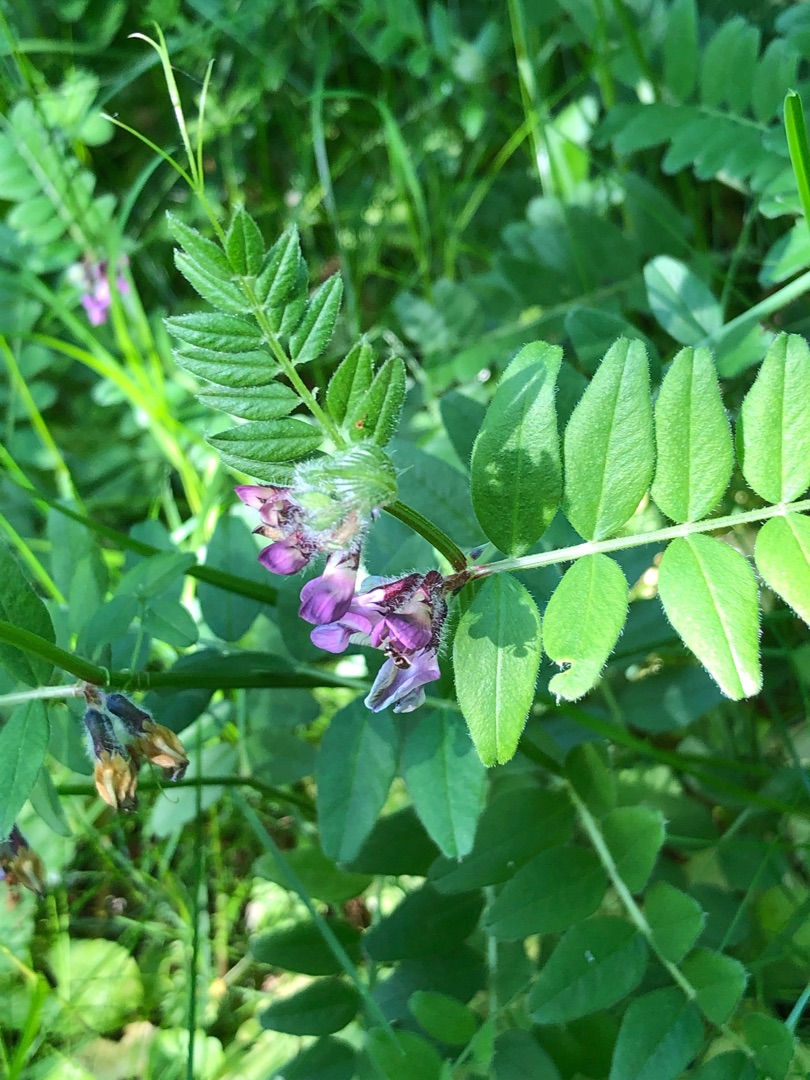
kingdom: Plantae
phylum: Tracheophyta
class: Magnoliopsida
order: Fabales
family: Fabaceae
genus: Vicia
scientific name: Vicia sepium
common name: Gærde-vikke
